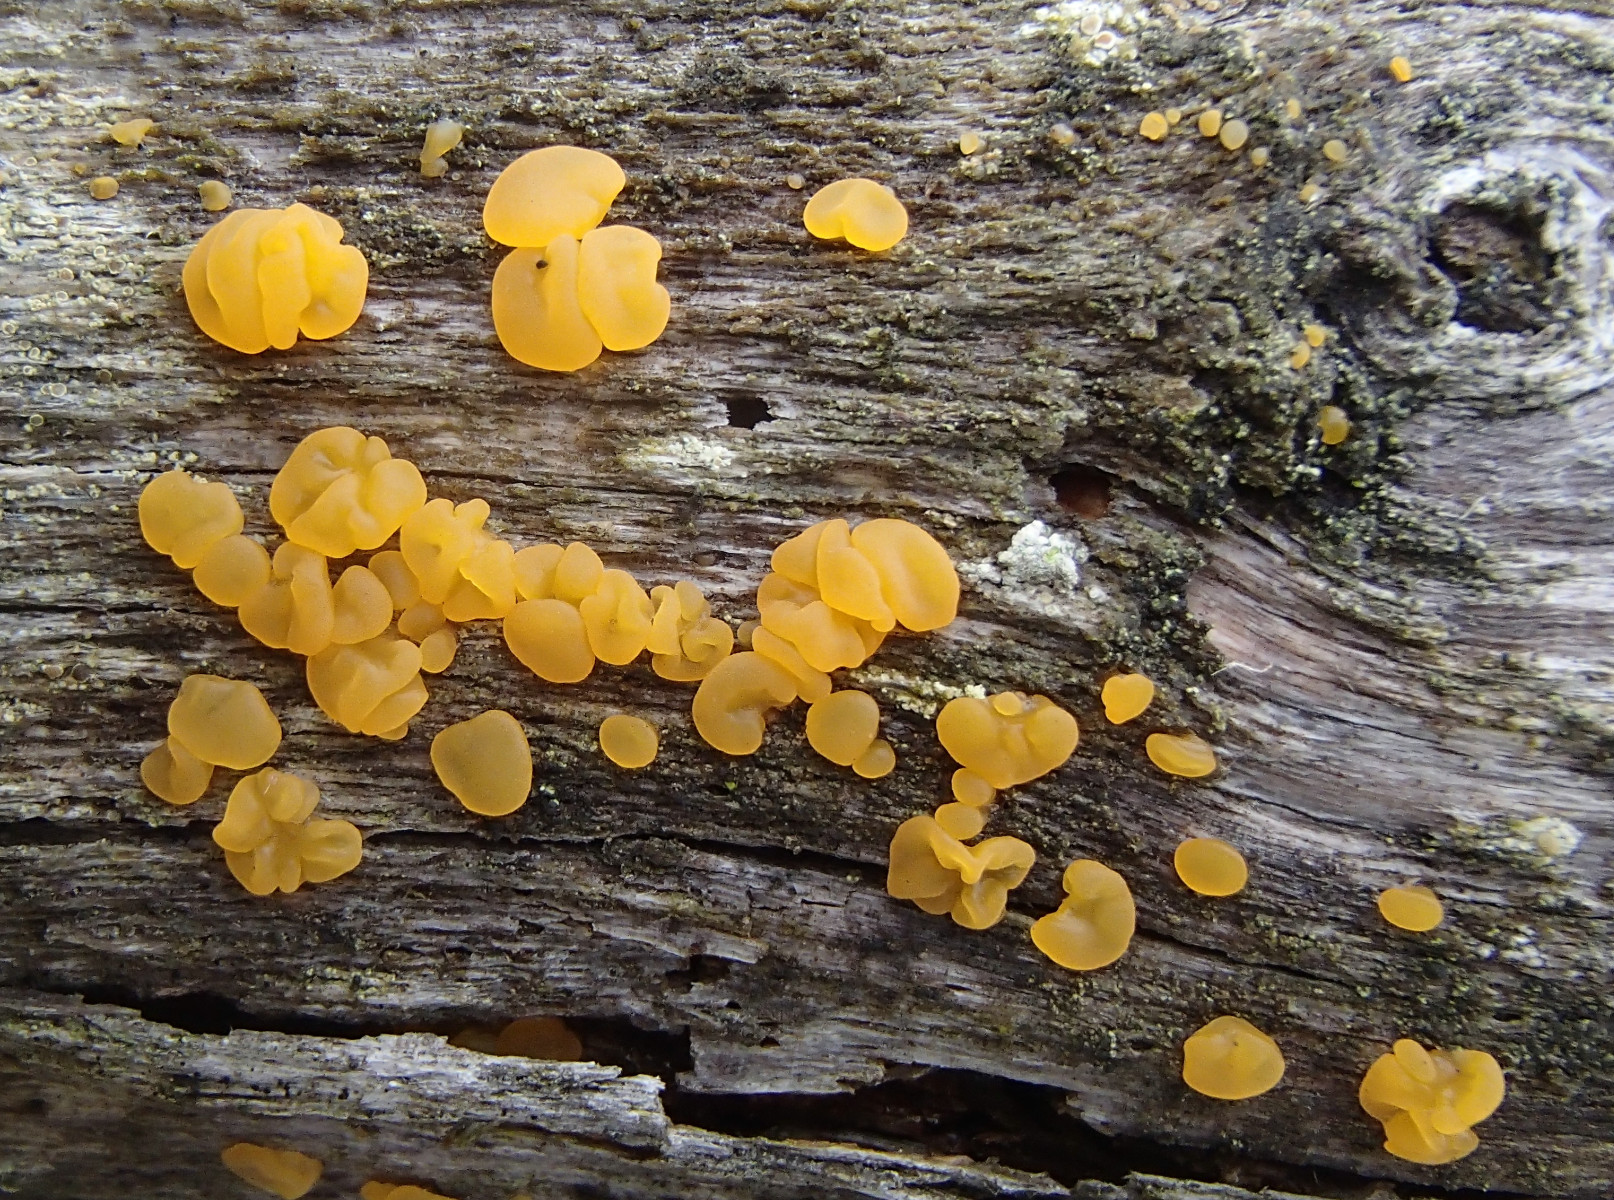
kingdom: Fungi
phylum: Basidiomycota
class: Dacrymycetes
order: Dacrymycetales
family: Dacrymycetaceae
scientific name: Dacrymycetaceae
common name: tåresvampfamilien
